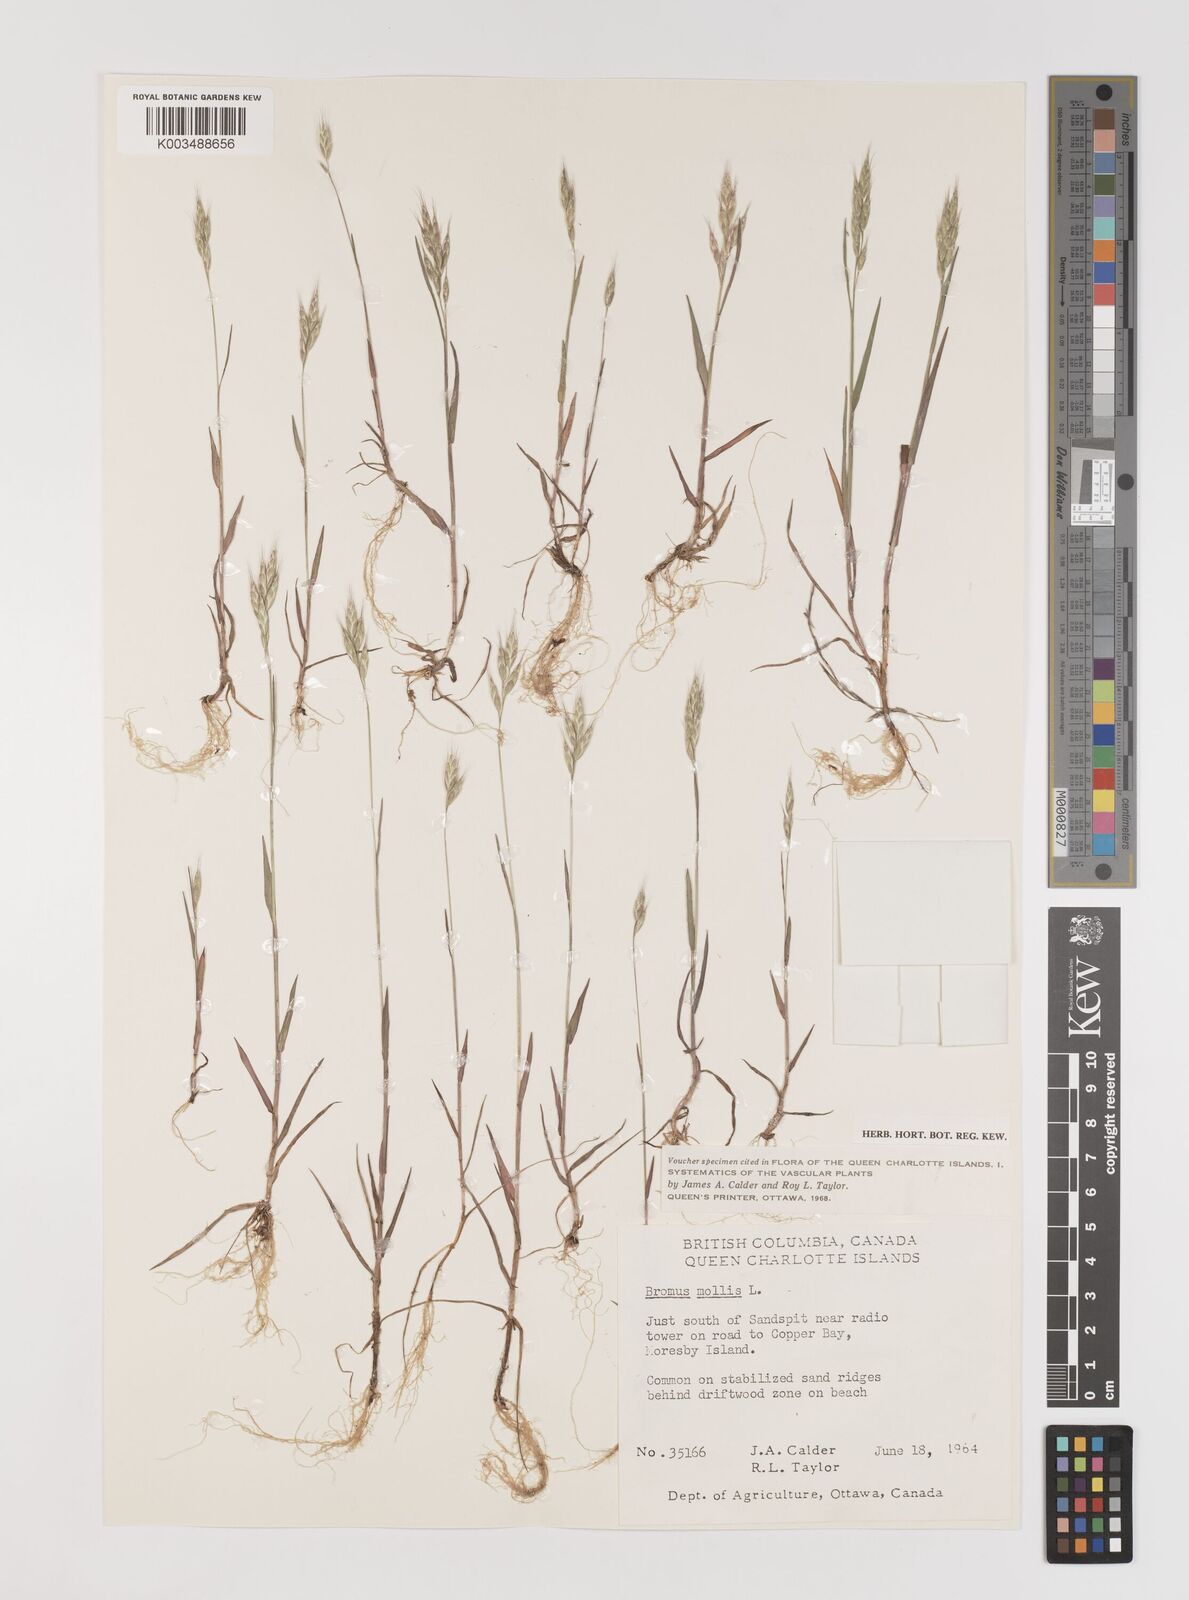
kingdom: Plantae
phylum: Tracheophyta
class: Liliopsida
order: Poales
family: Poaceae
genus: Bromus
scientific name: Bromus hordeaceus
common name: Soft brome
